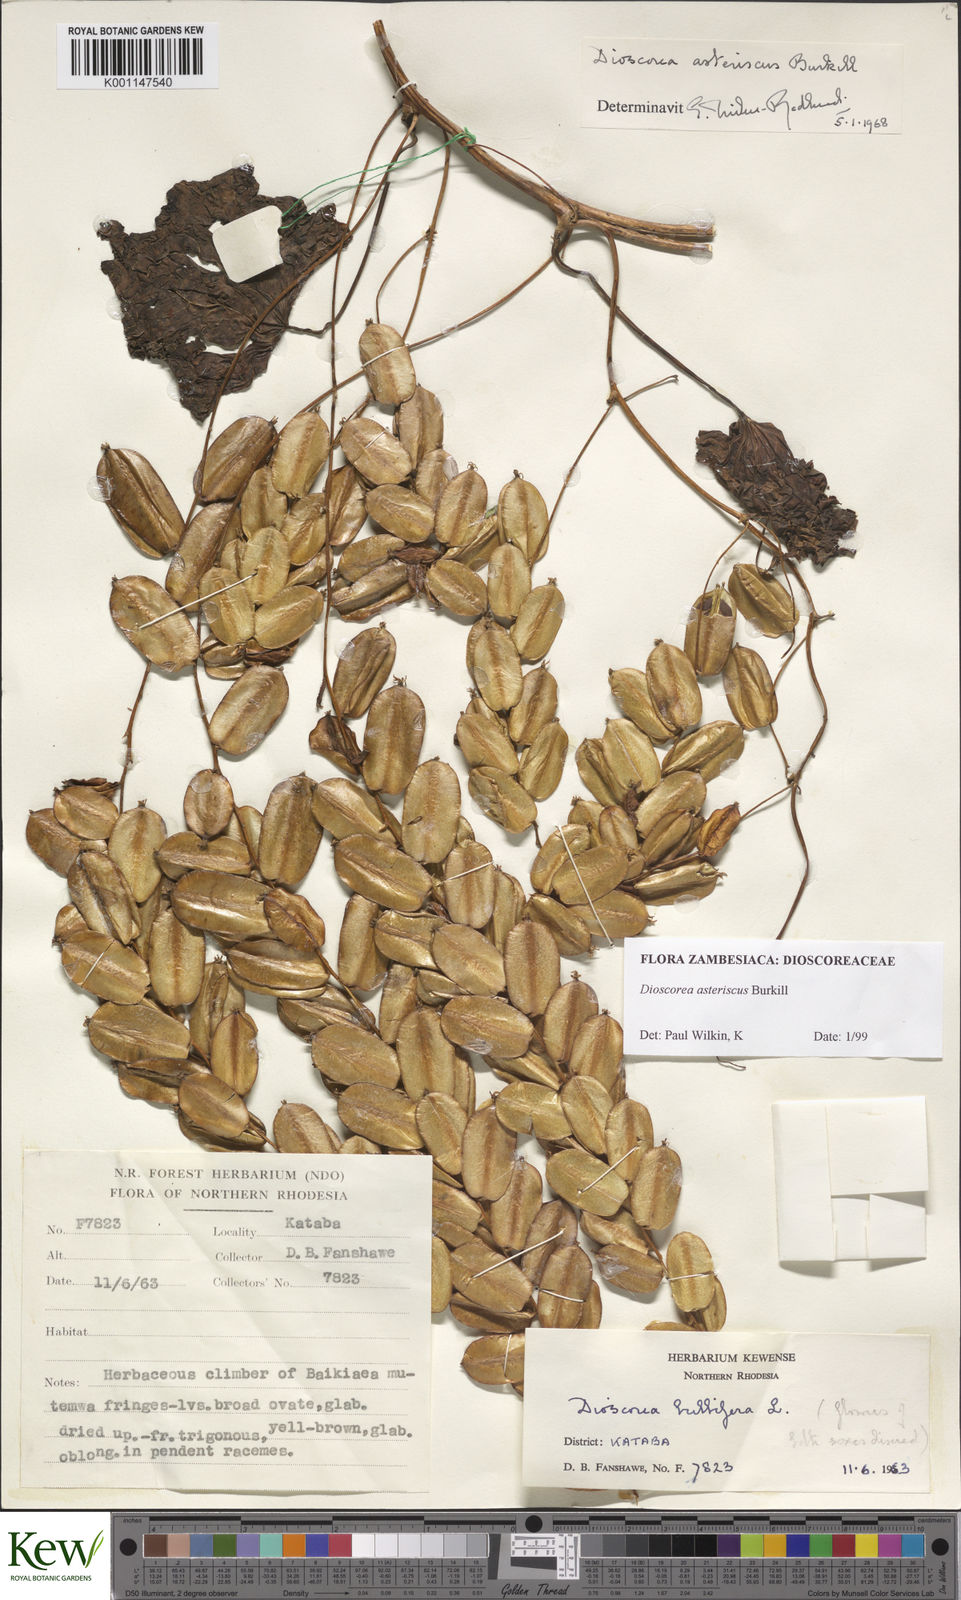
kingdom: Plantae
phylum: Tracheophyta
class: Liliopsida
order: Dioscoreales
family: Dioscoreaceae
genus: Dioscorea
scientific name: Dioscorea asteriscus
